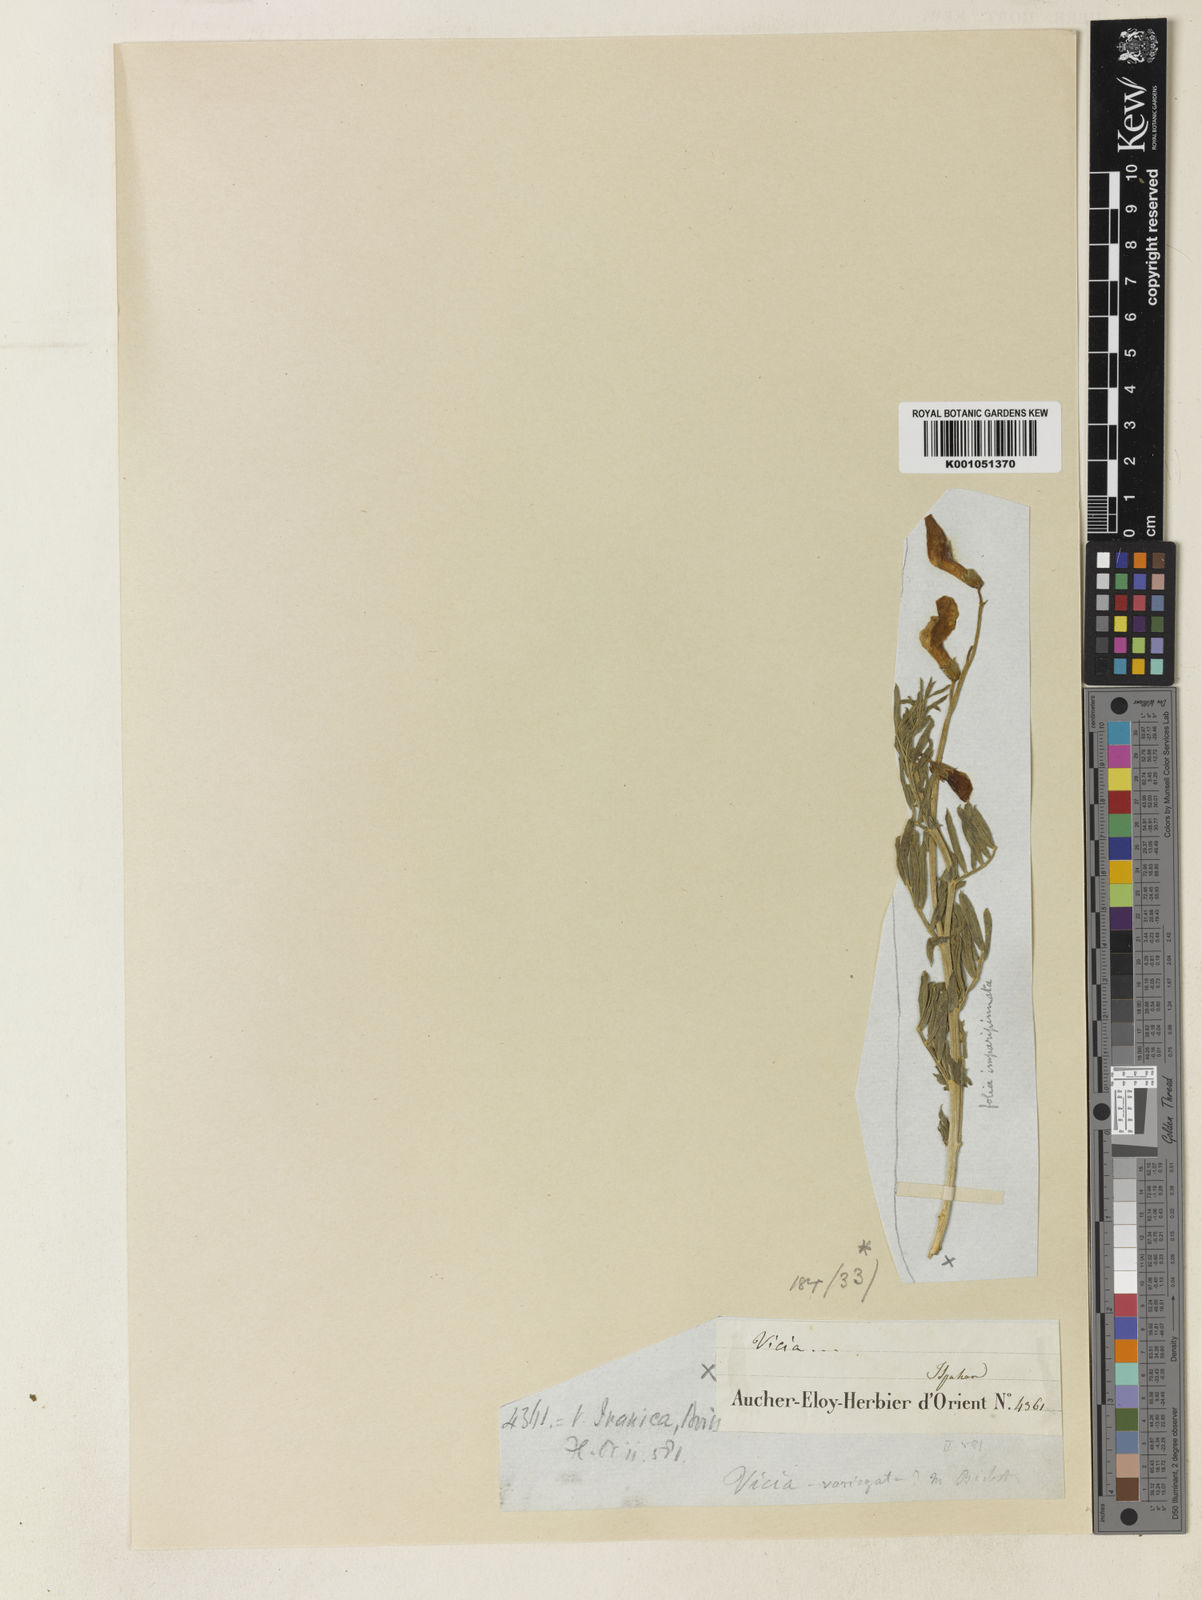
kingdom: Plantae
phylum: Tracheophyta
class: Magnoliopsida
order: Fabales
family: Fabaceae
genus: Vicia
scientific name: Vicia iranica
